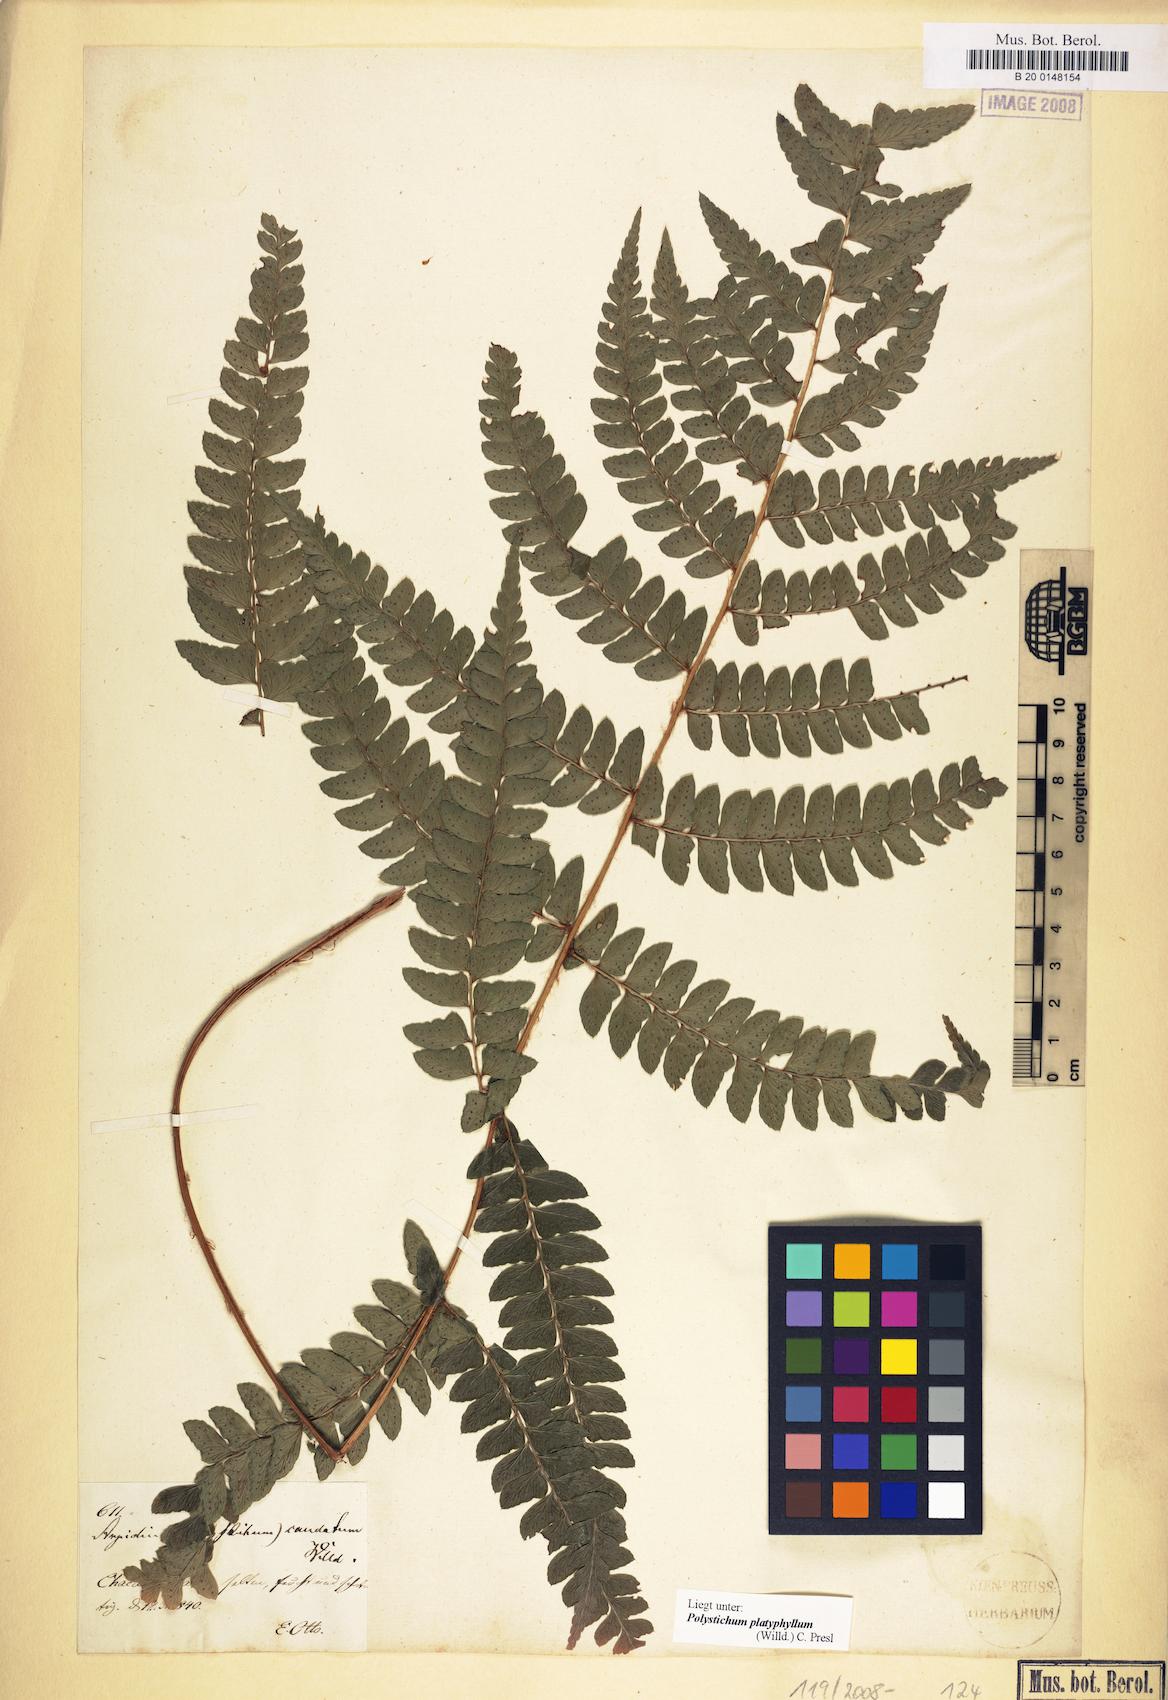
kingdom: Plantae
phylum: Tracheophyta
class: Polypodiopsida
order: Polypodiales
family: Dryopteridaceae
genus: Polystichum
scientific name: Polystichum platyphyllum
